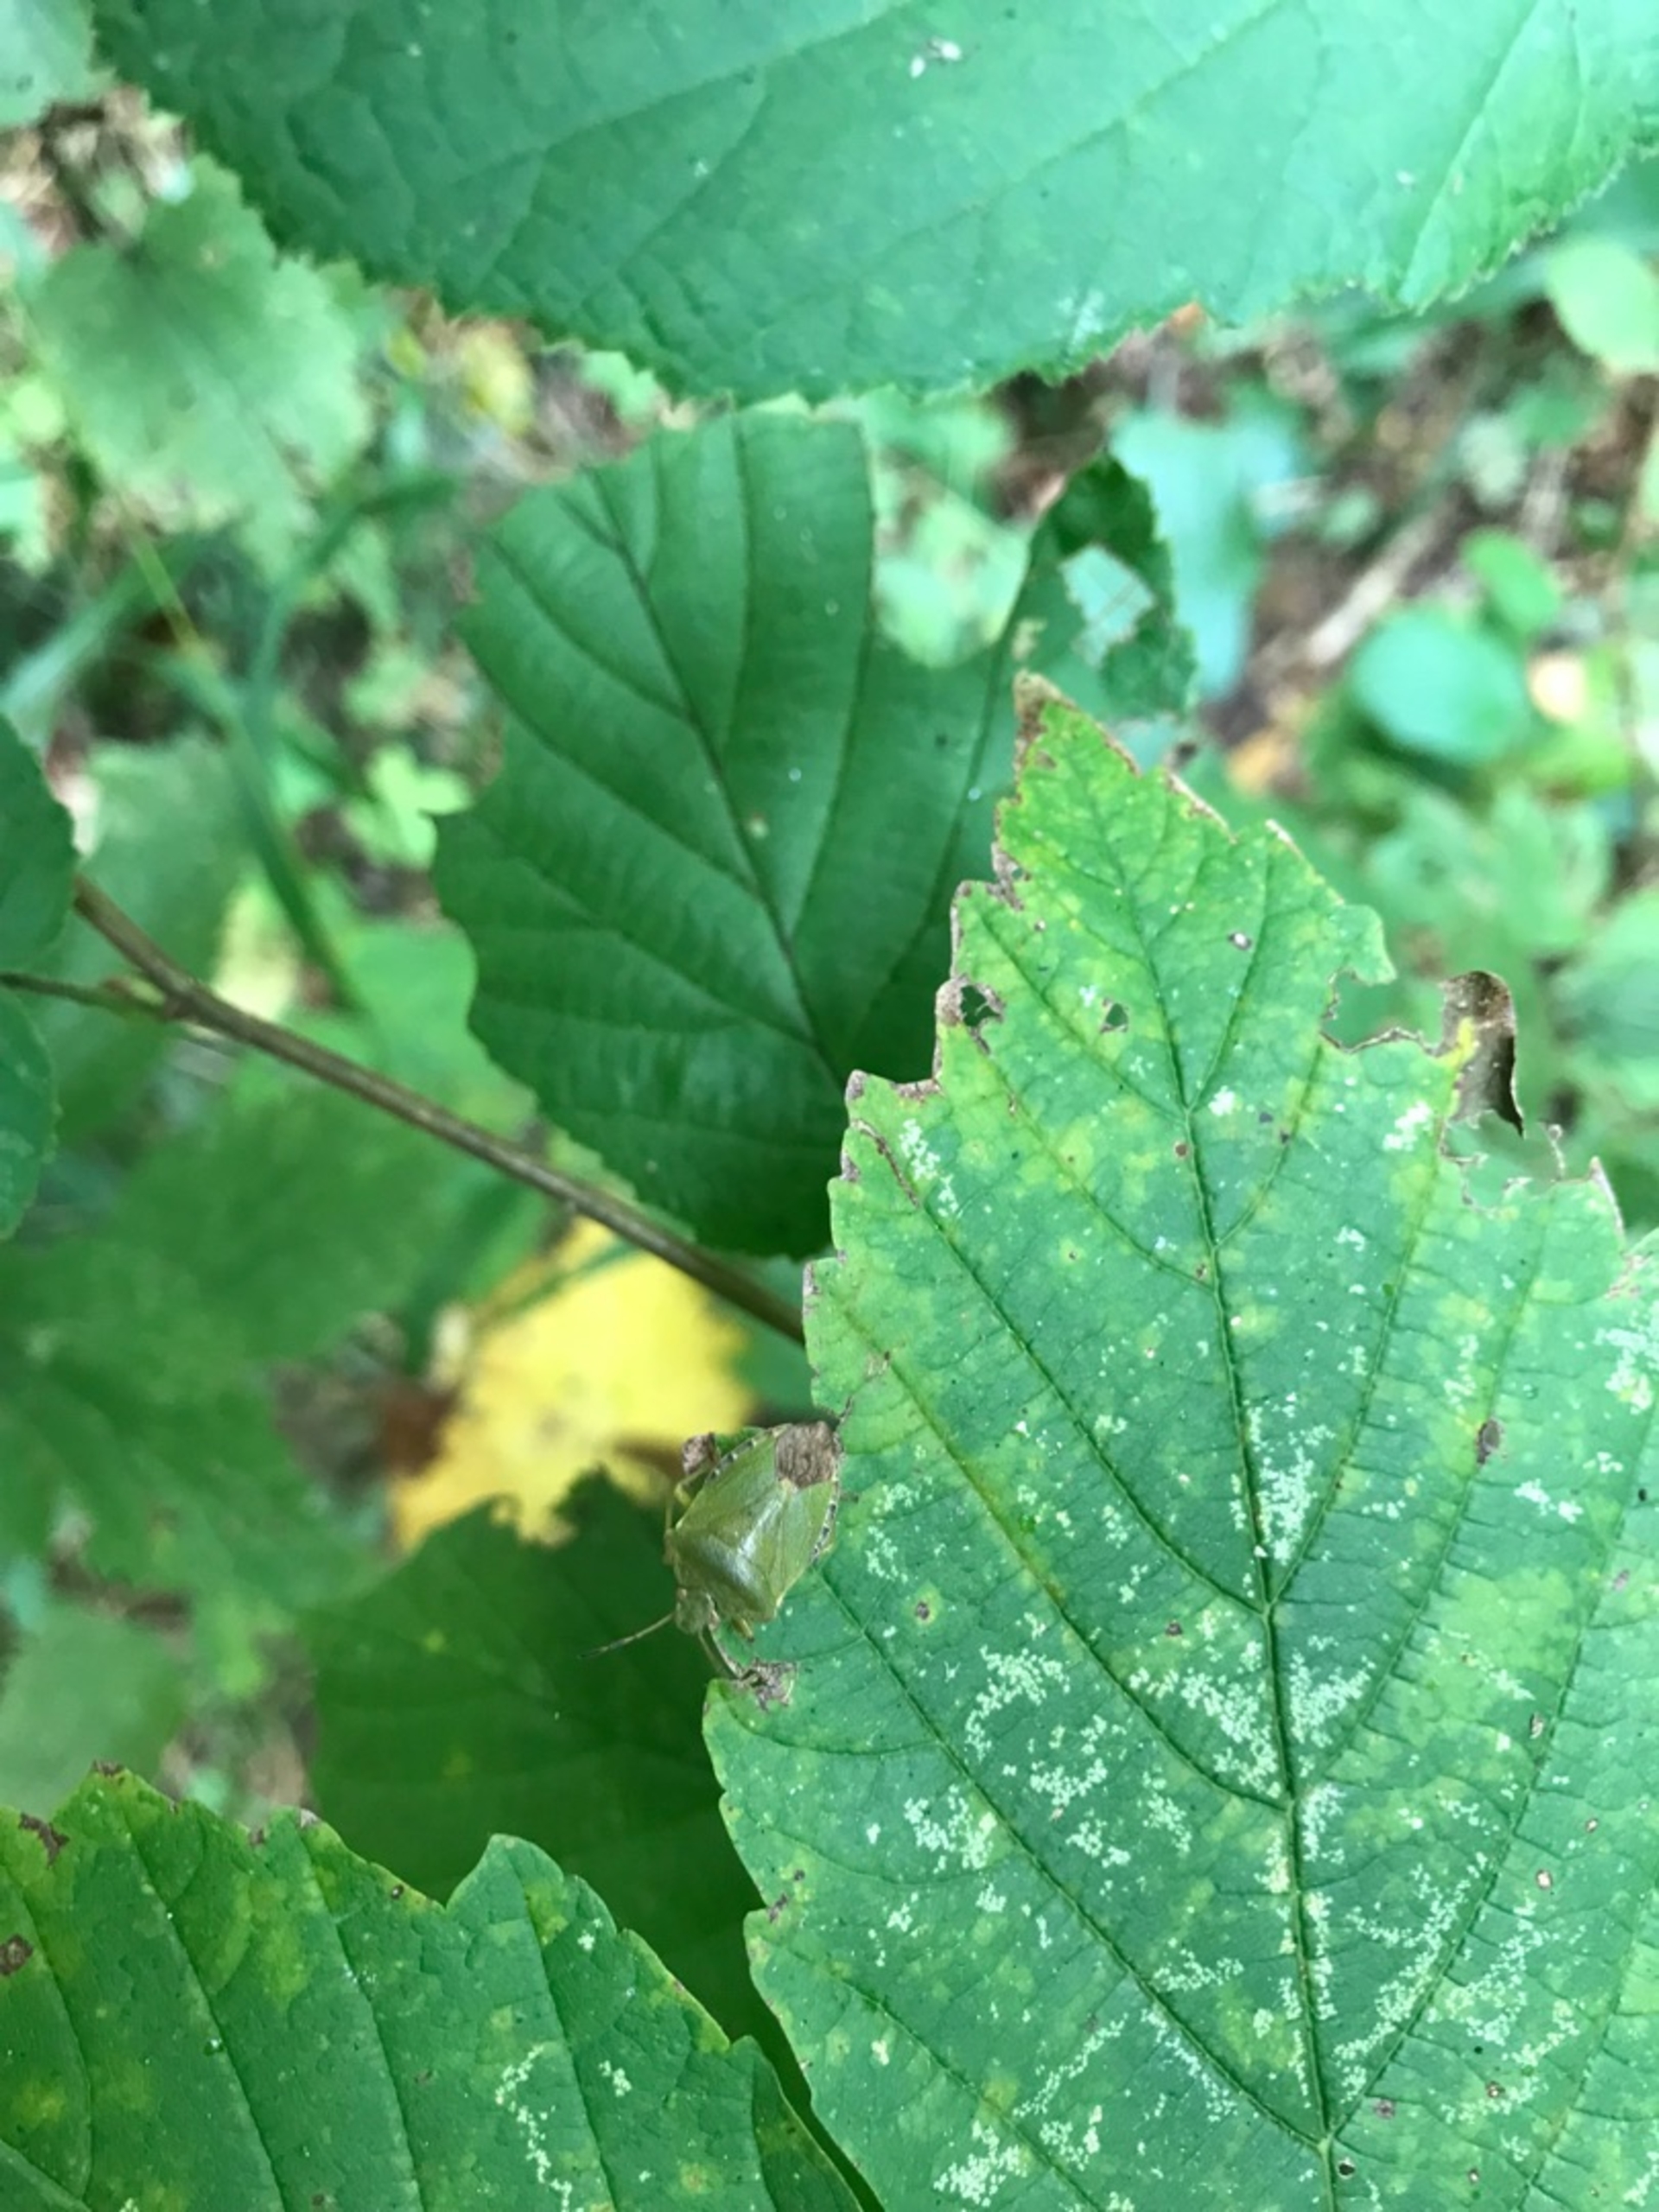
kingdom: Animalia
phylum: Arthropoda
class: Insecta
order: Hemiptera
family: Pentatomidae
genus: Palomena
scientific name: Palomena prasina
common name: Grøn bredtæge
